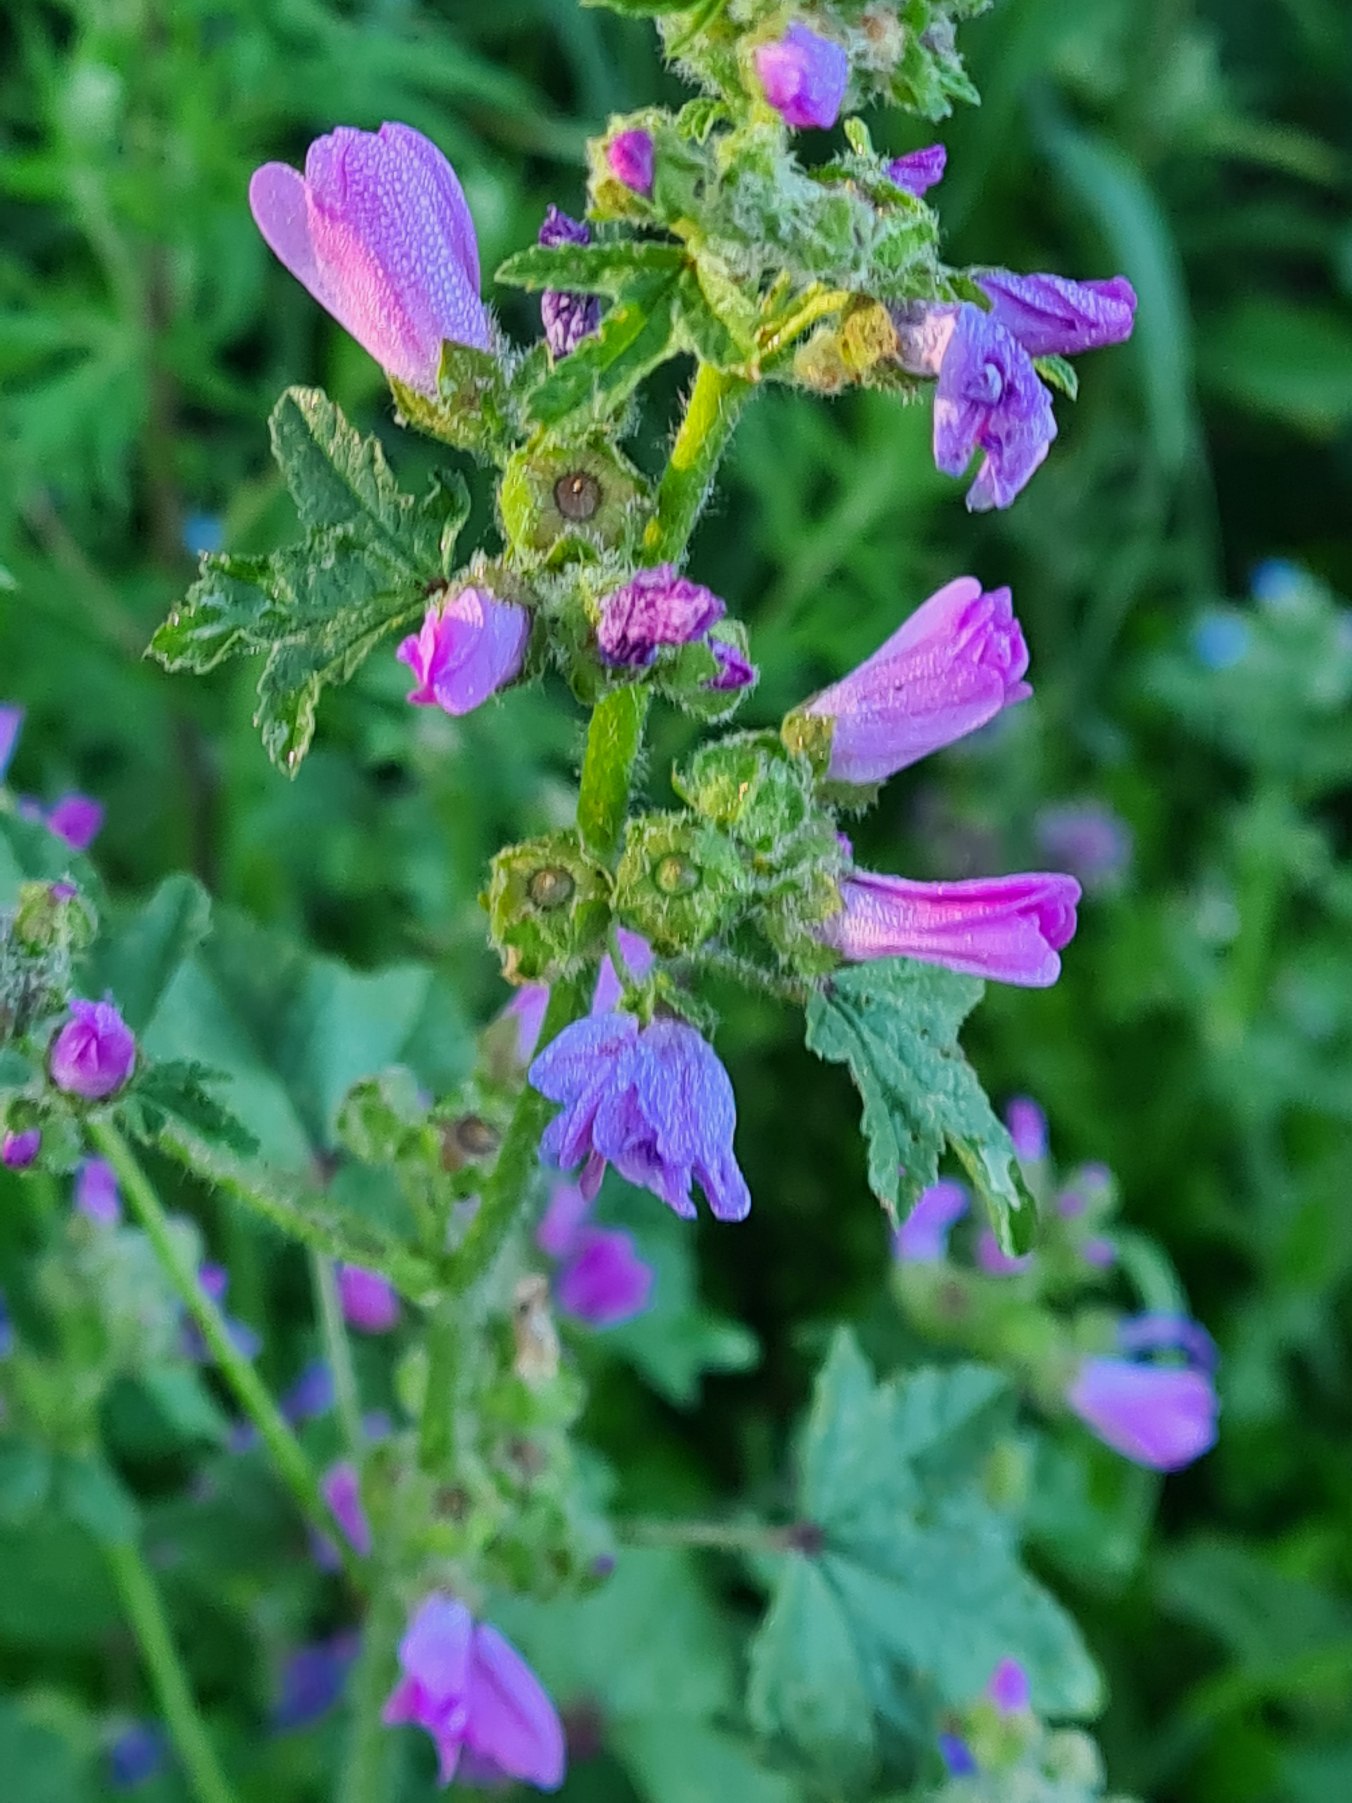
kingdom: Plantae
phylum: Tracheophyta
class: Magnoliopsida
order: Malvales
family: Malvaceae
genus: Malva
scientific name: Malva sylvestris
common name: Almindelig katost
